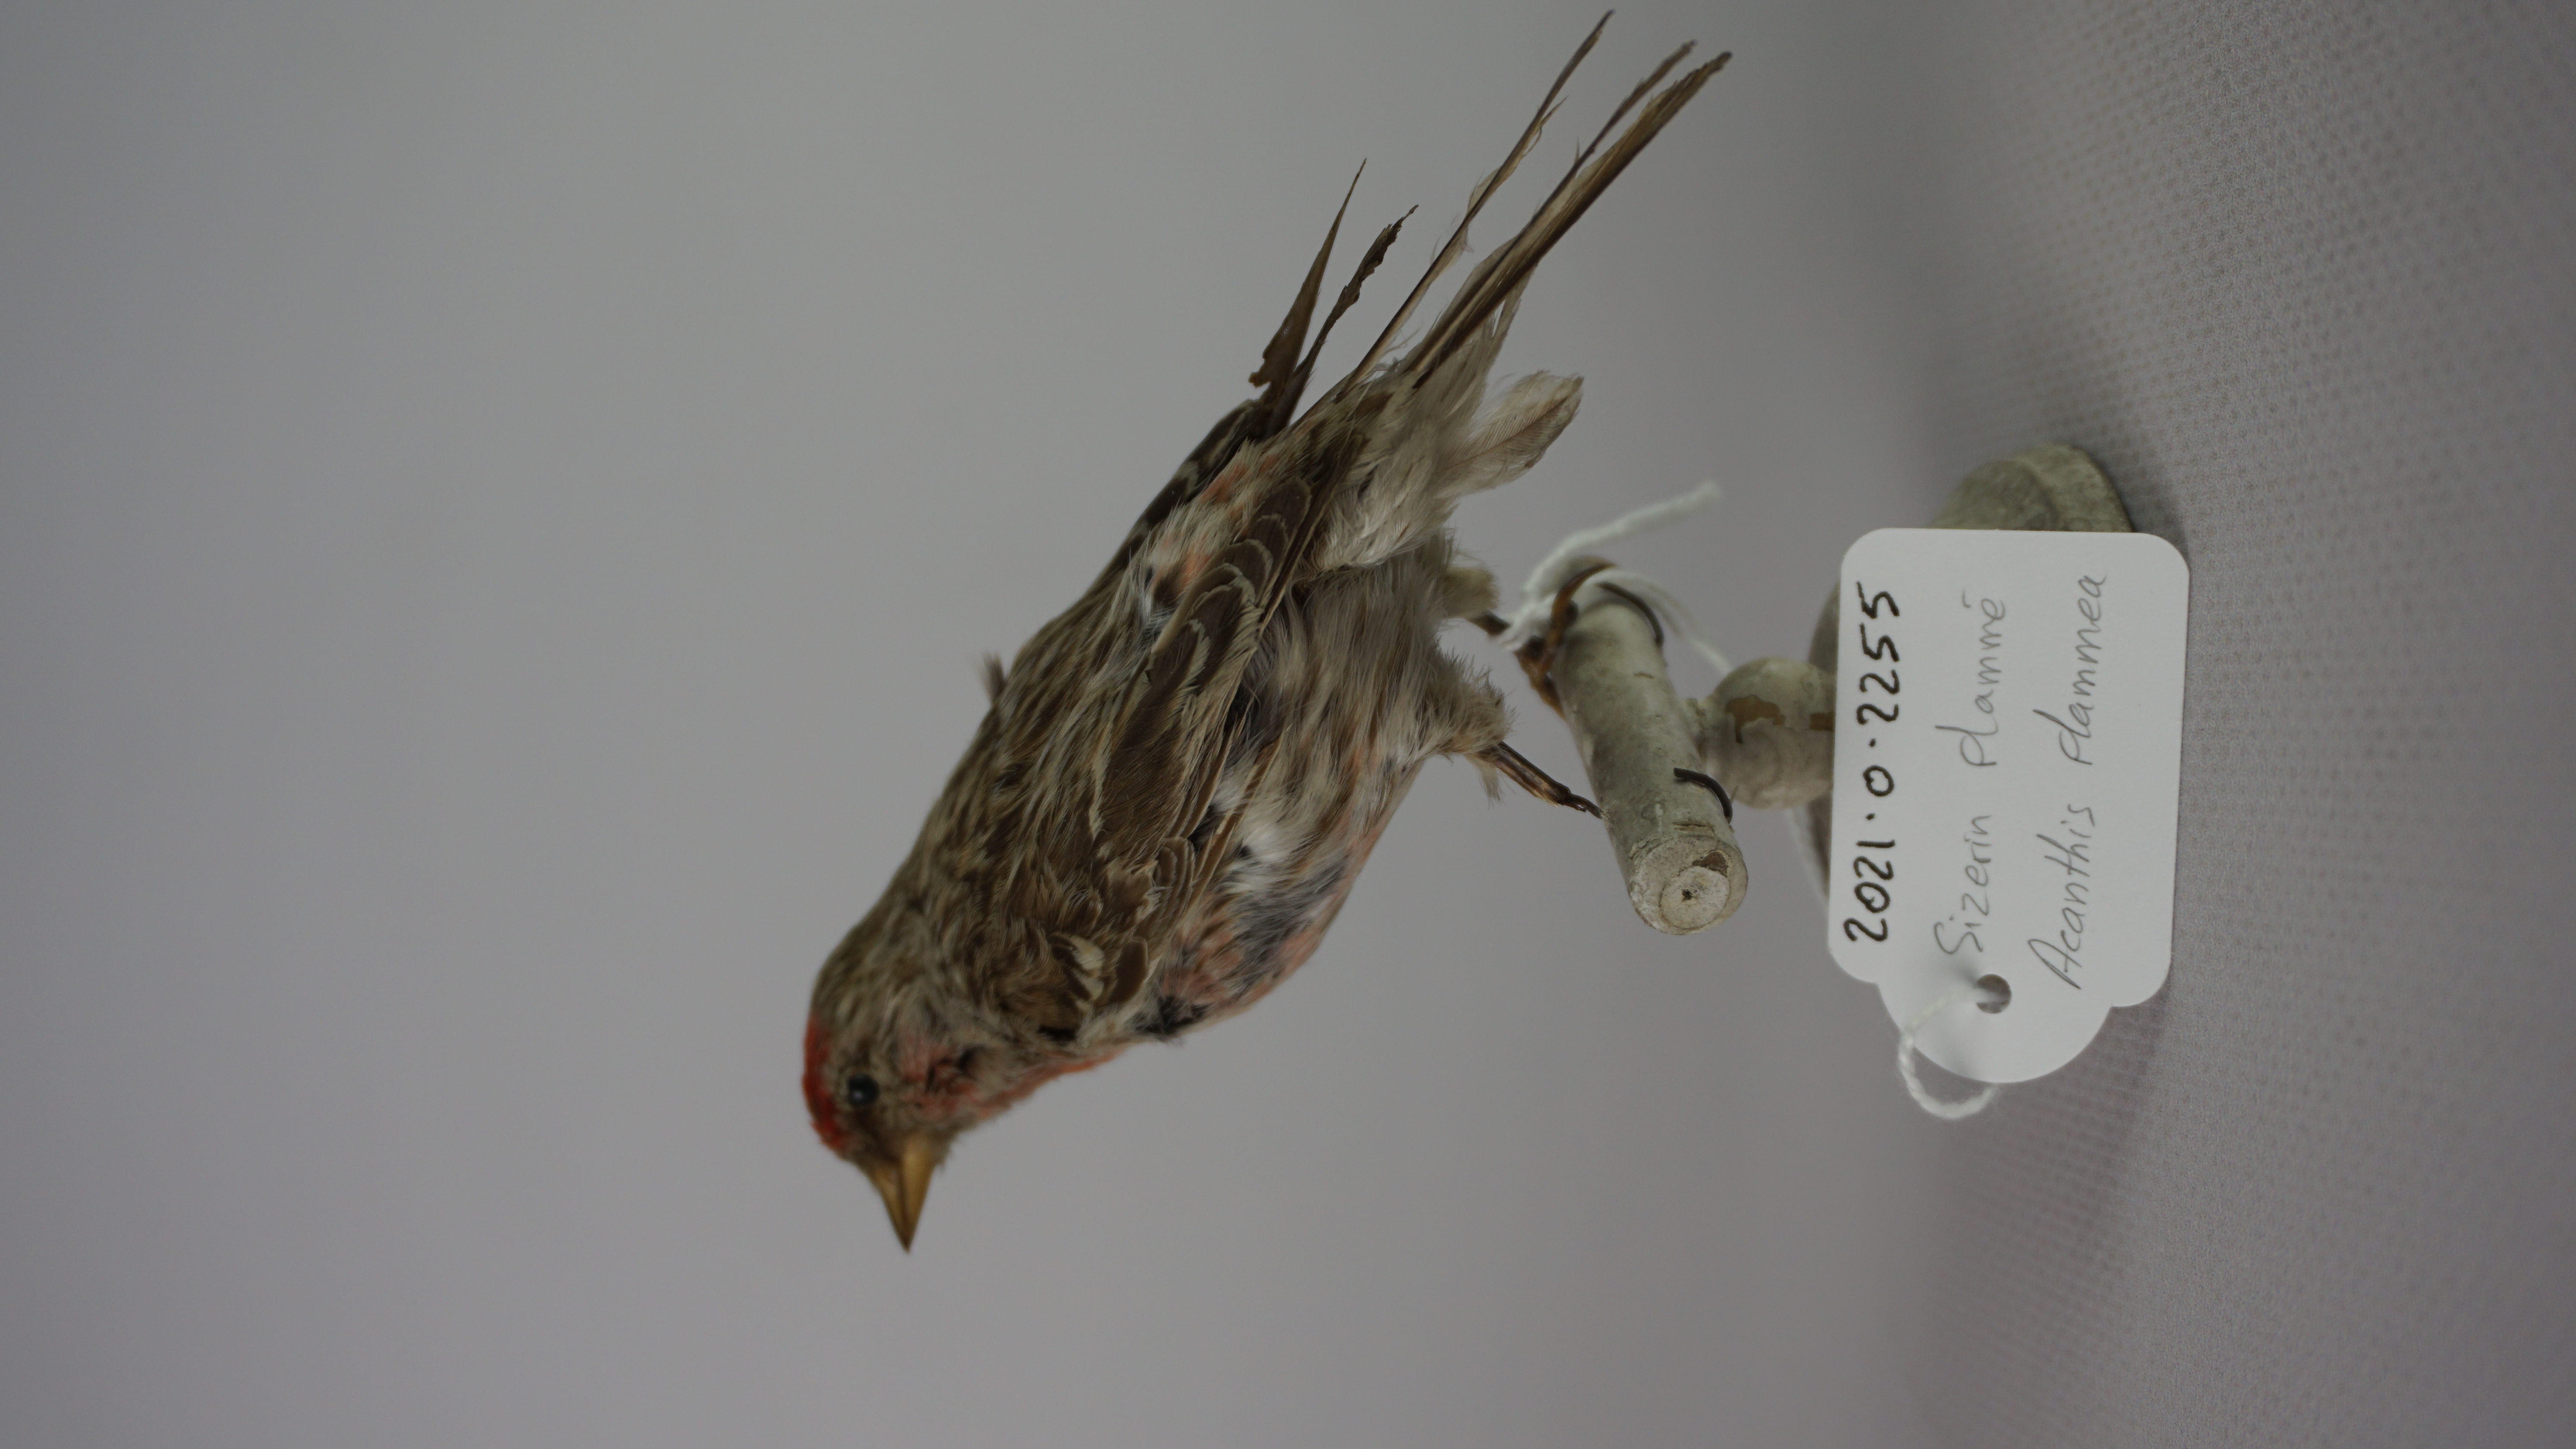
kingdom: Animalia
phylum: Chordata
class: Aves
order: Passeriformes
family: Fringillidae
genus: Acanthis
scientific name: Acanthis flammea
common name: Common redpoll
